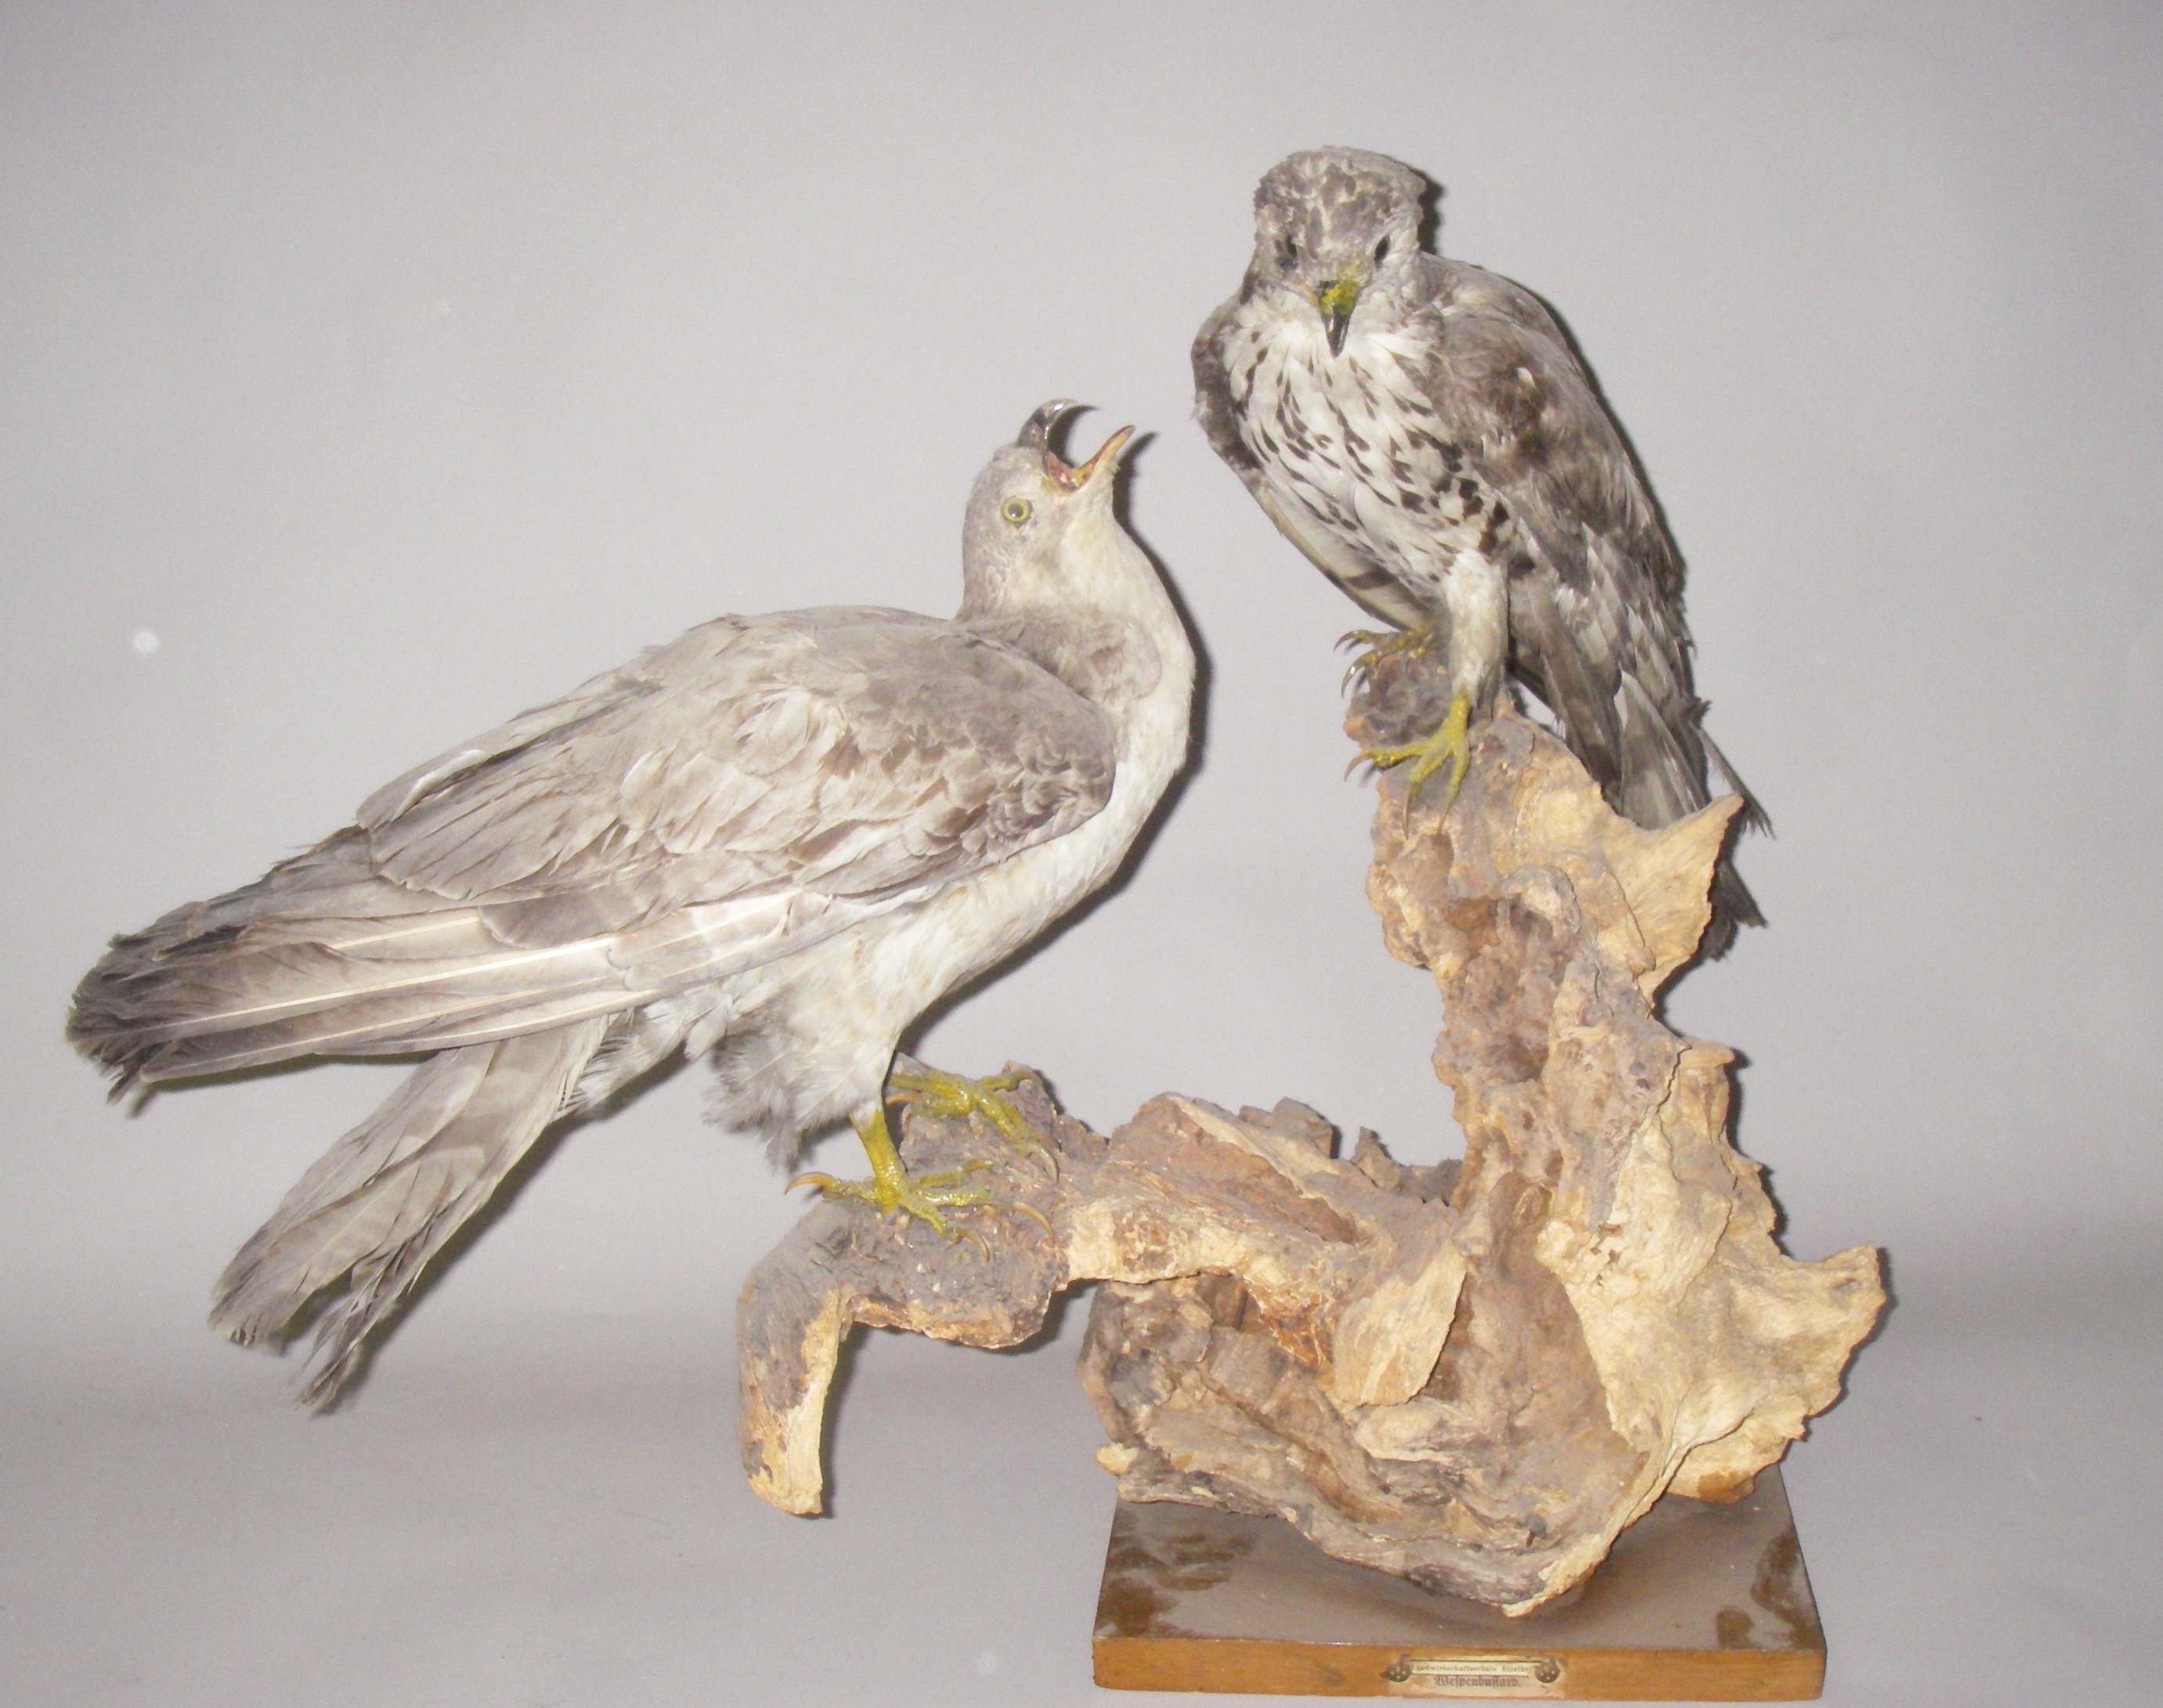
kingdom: Animalia
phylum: Chordata
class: Aves
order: Accipitriformes
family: Accipitridae
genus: Pernis
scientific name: Pernis apivorus
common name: European honey buzzard
